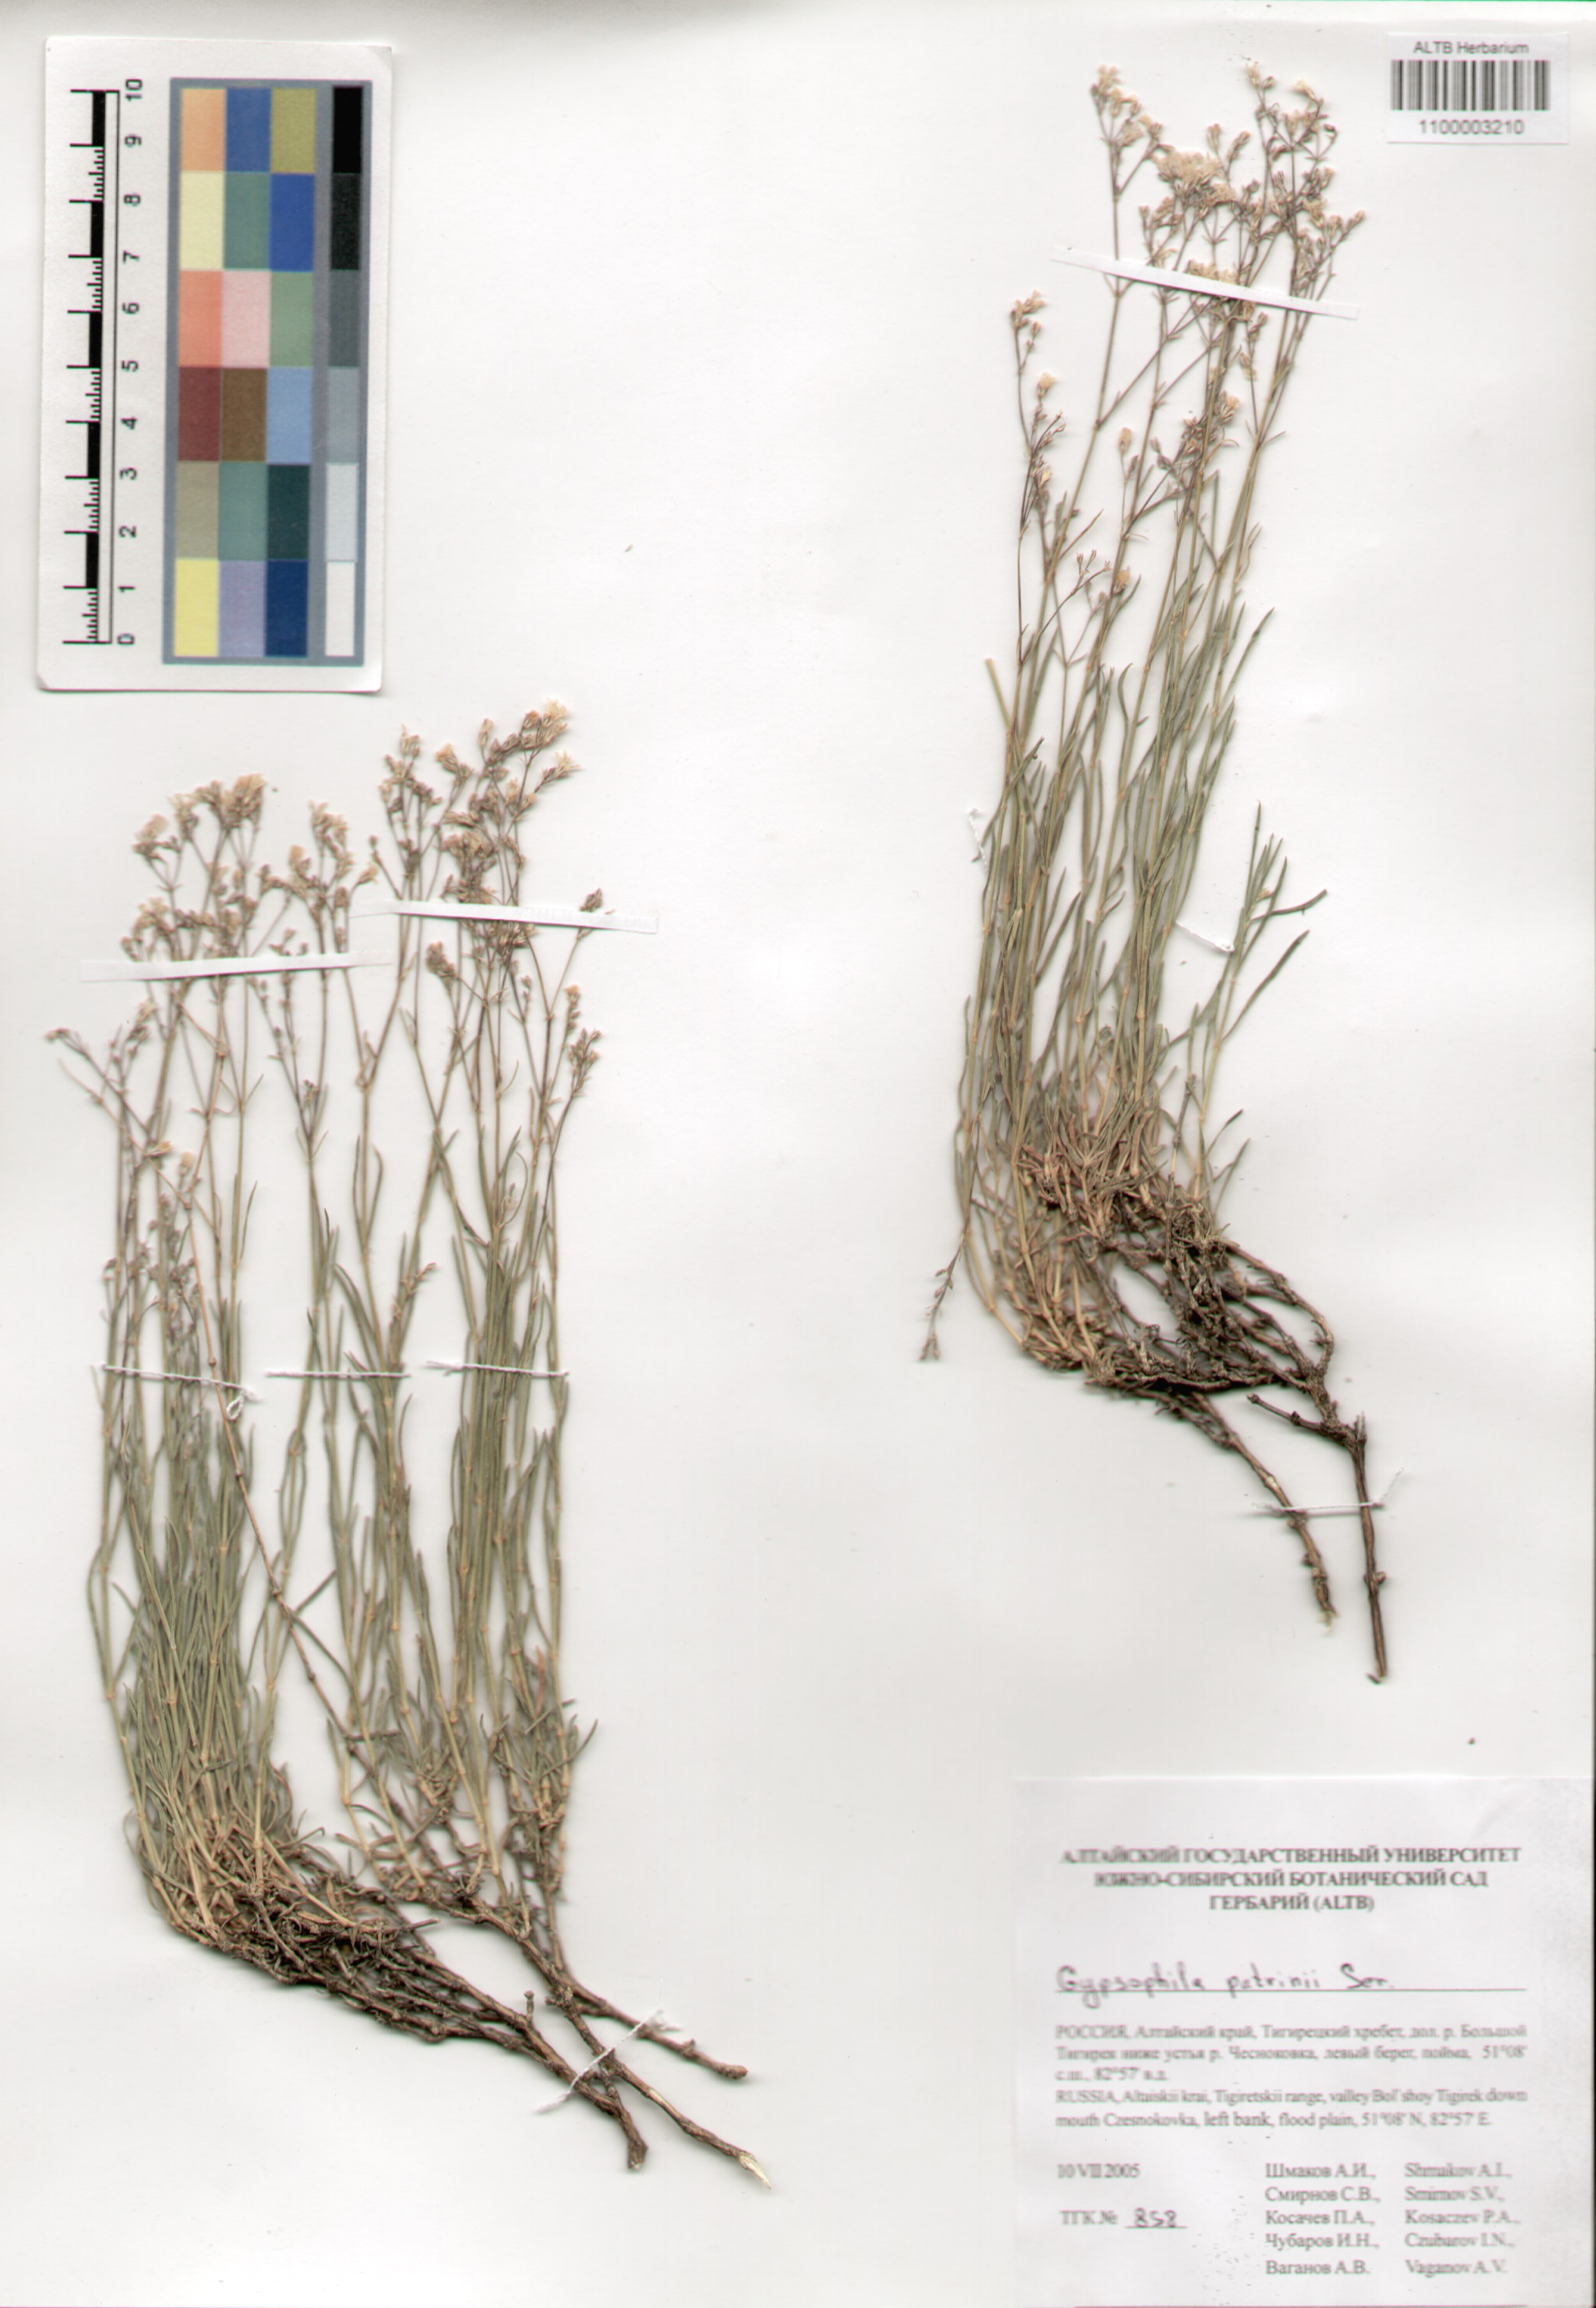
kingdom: Plantae
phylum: Tracheophyta
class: Magnoliopsida
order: Caryophyllales
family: Caryophyllaceae
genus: Gypsophila
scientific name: Gypsophila patrinii
